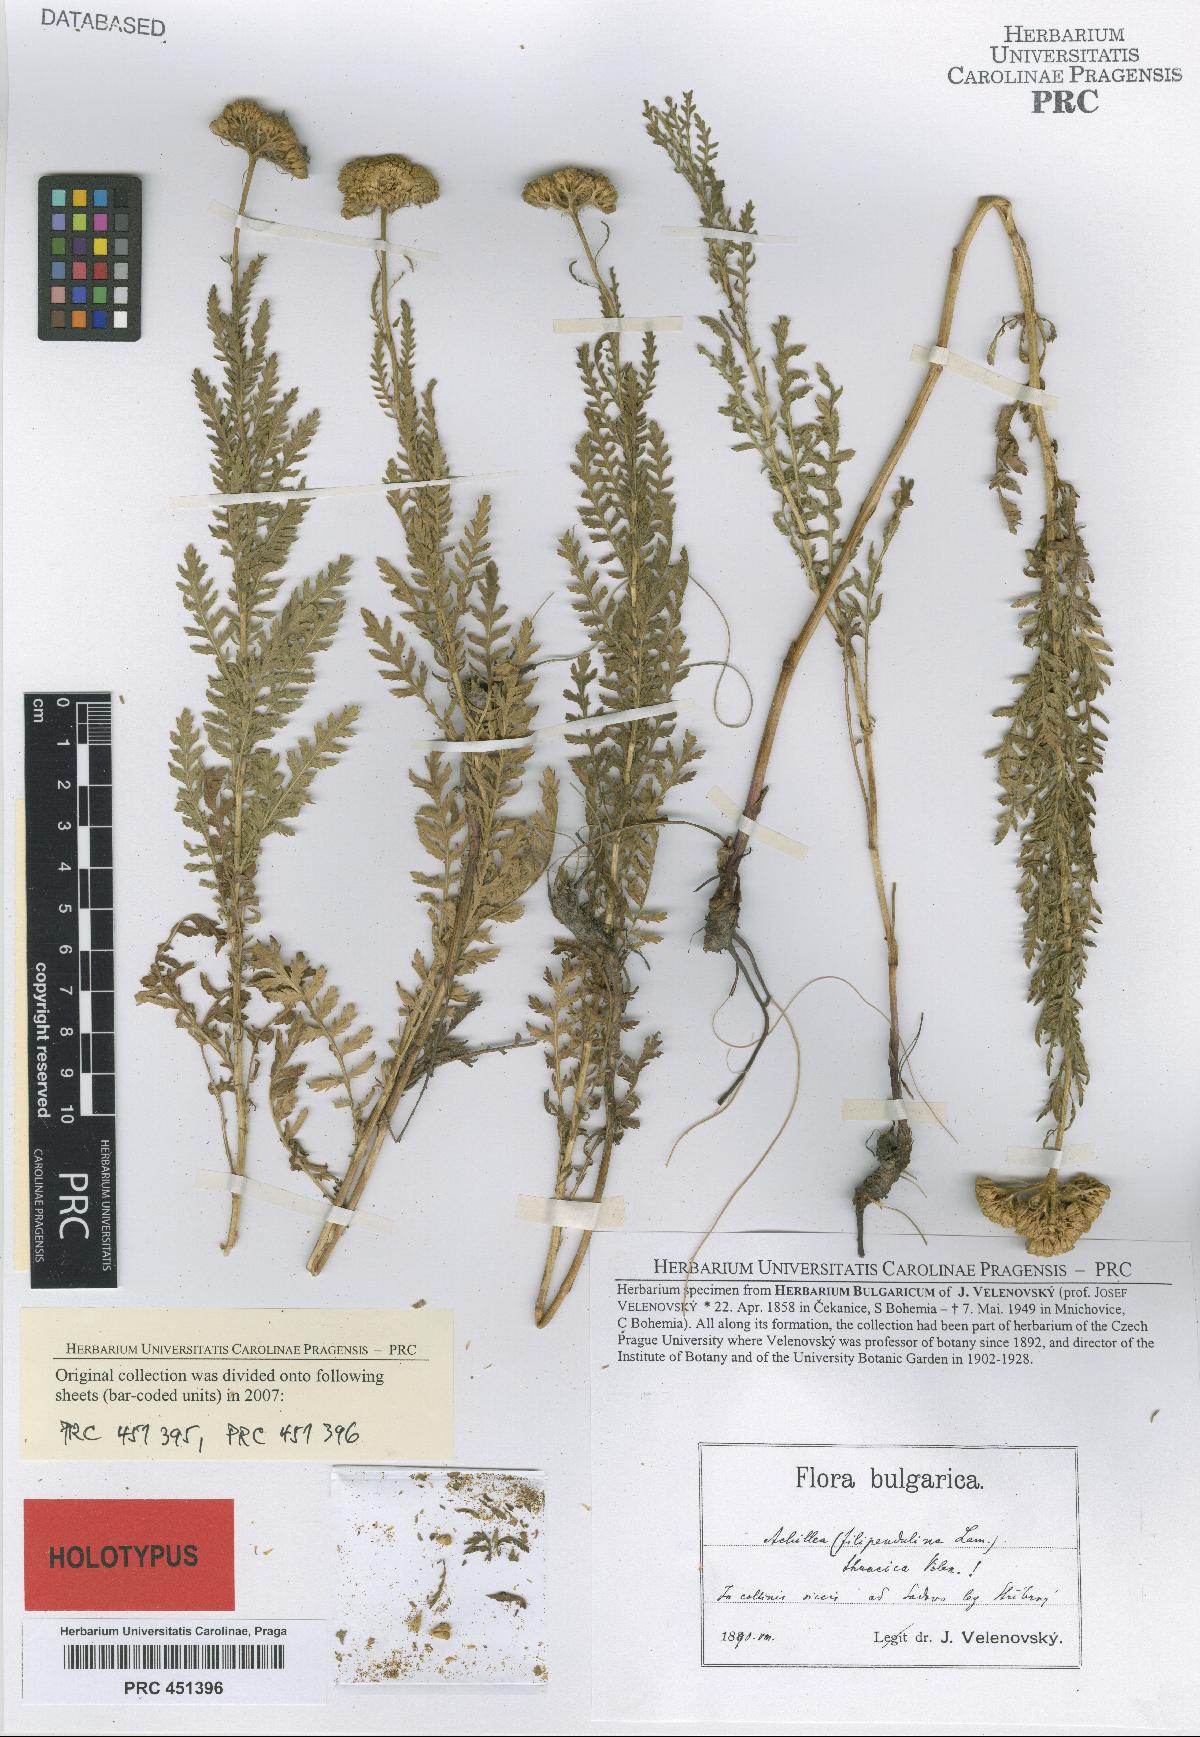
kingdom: Plantae
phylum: Tracheophyta
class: Magnoliopsida
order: Asterales
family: Asteraceae
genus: Achillea
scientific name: Achillea thracica
